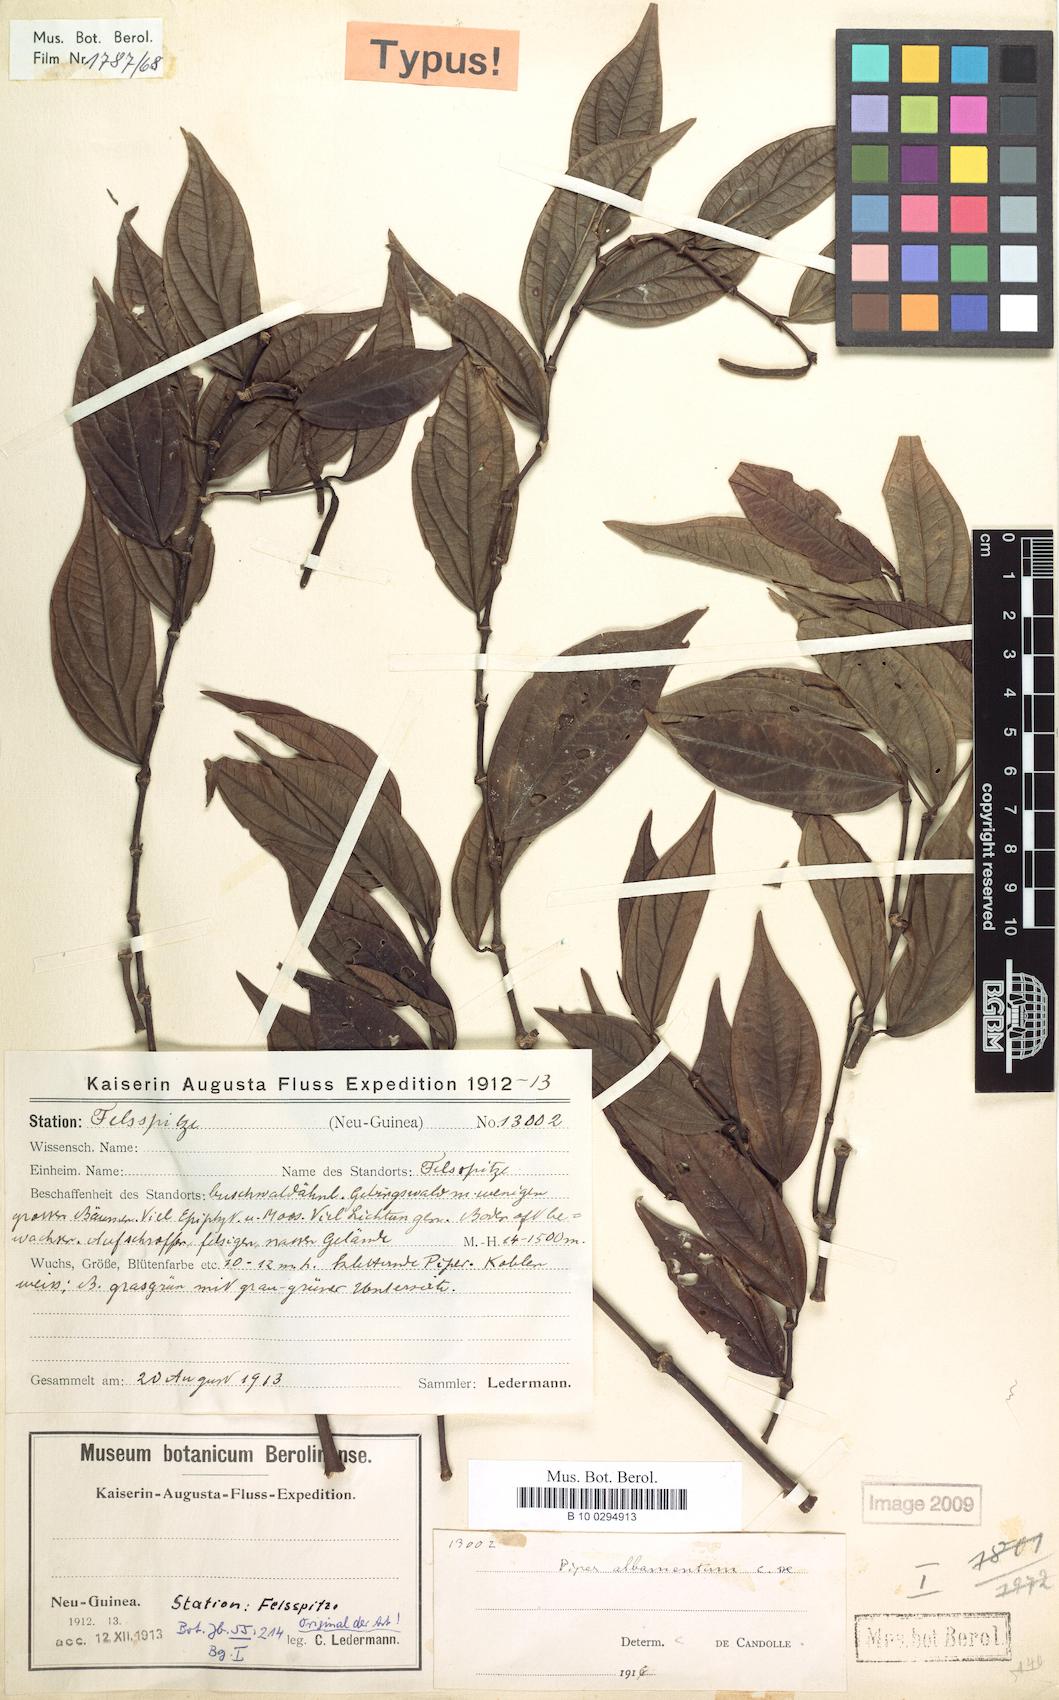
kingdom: Plantae
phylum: Tracheophyta
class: Magnoliopsida
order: Piperales
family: Piperaceae
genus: Piper
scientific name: Piper albamentum
